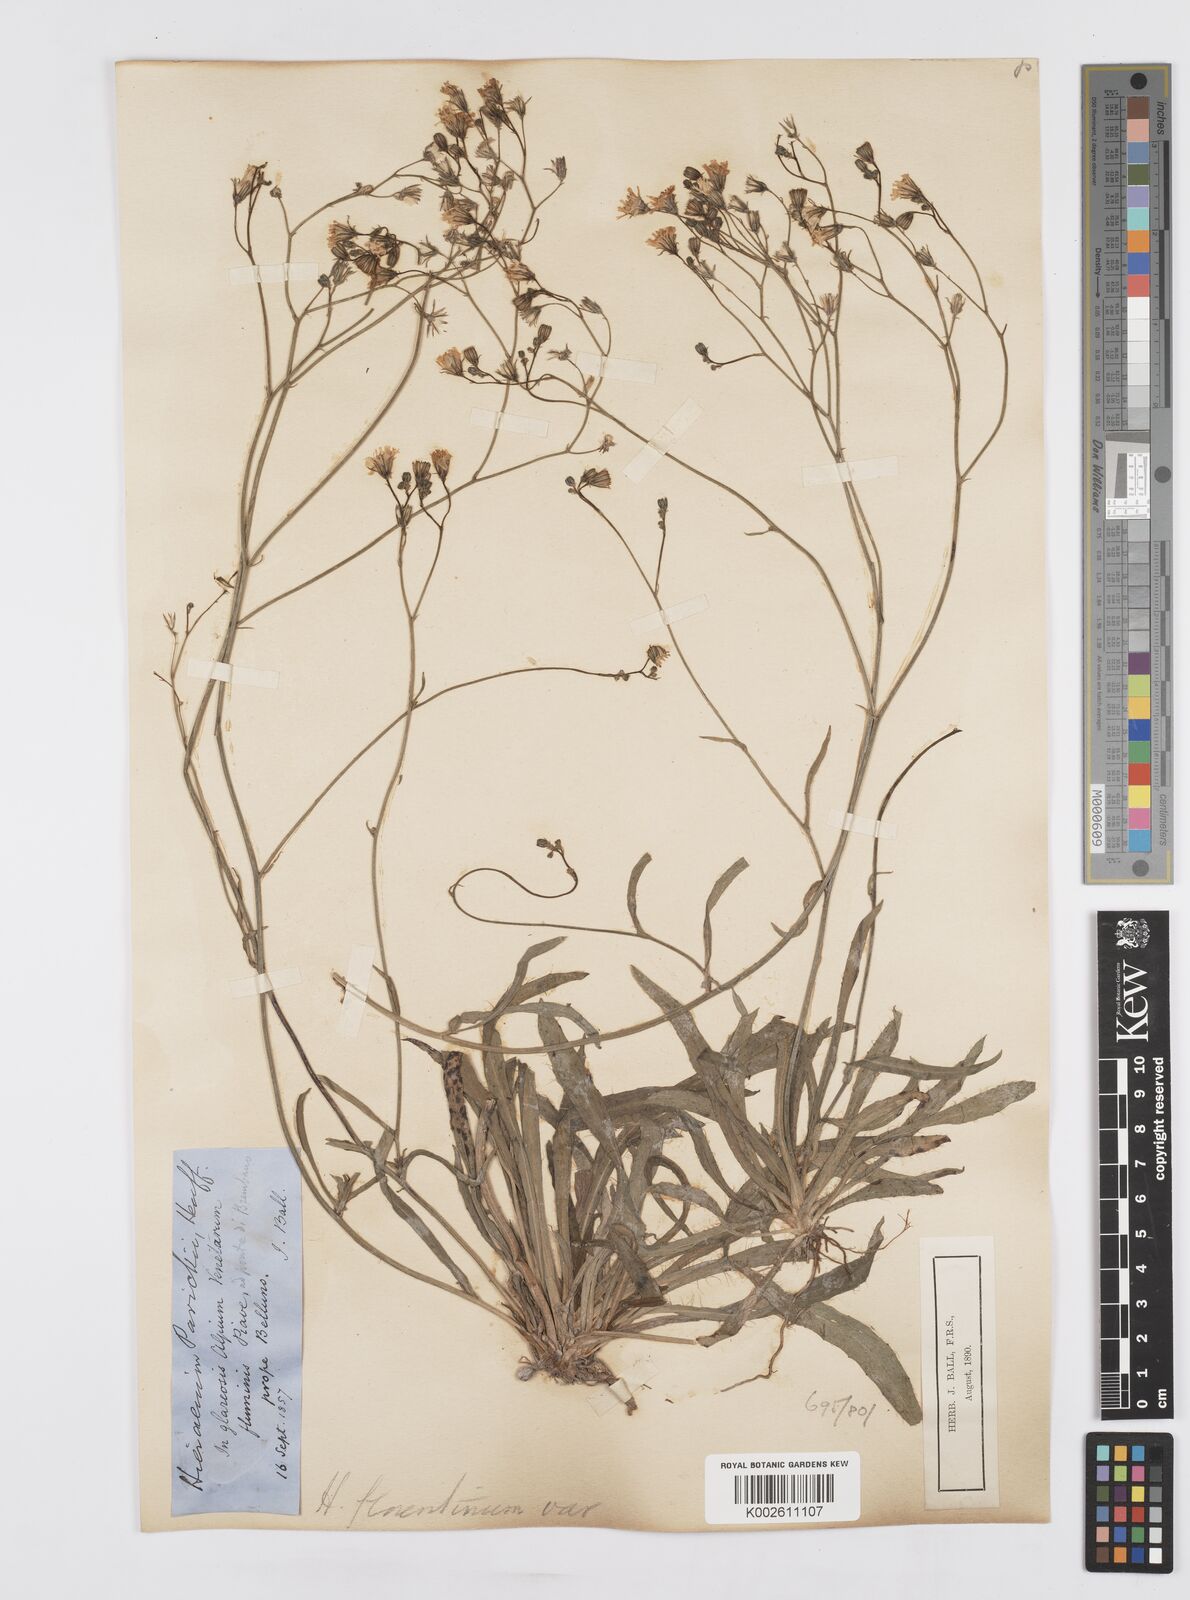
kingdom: Plantae
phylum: Tracheophyta
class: Magnoliopsida
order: Asterales
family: Asteraceae
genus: Pilosella
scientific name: Pilosella piloselloides
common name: Glaucous king-devil
